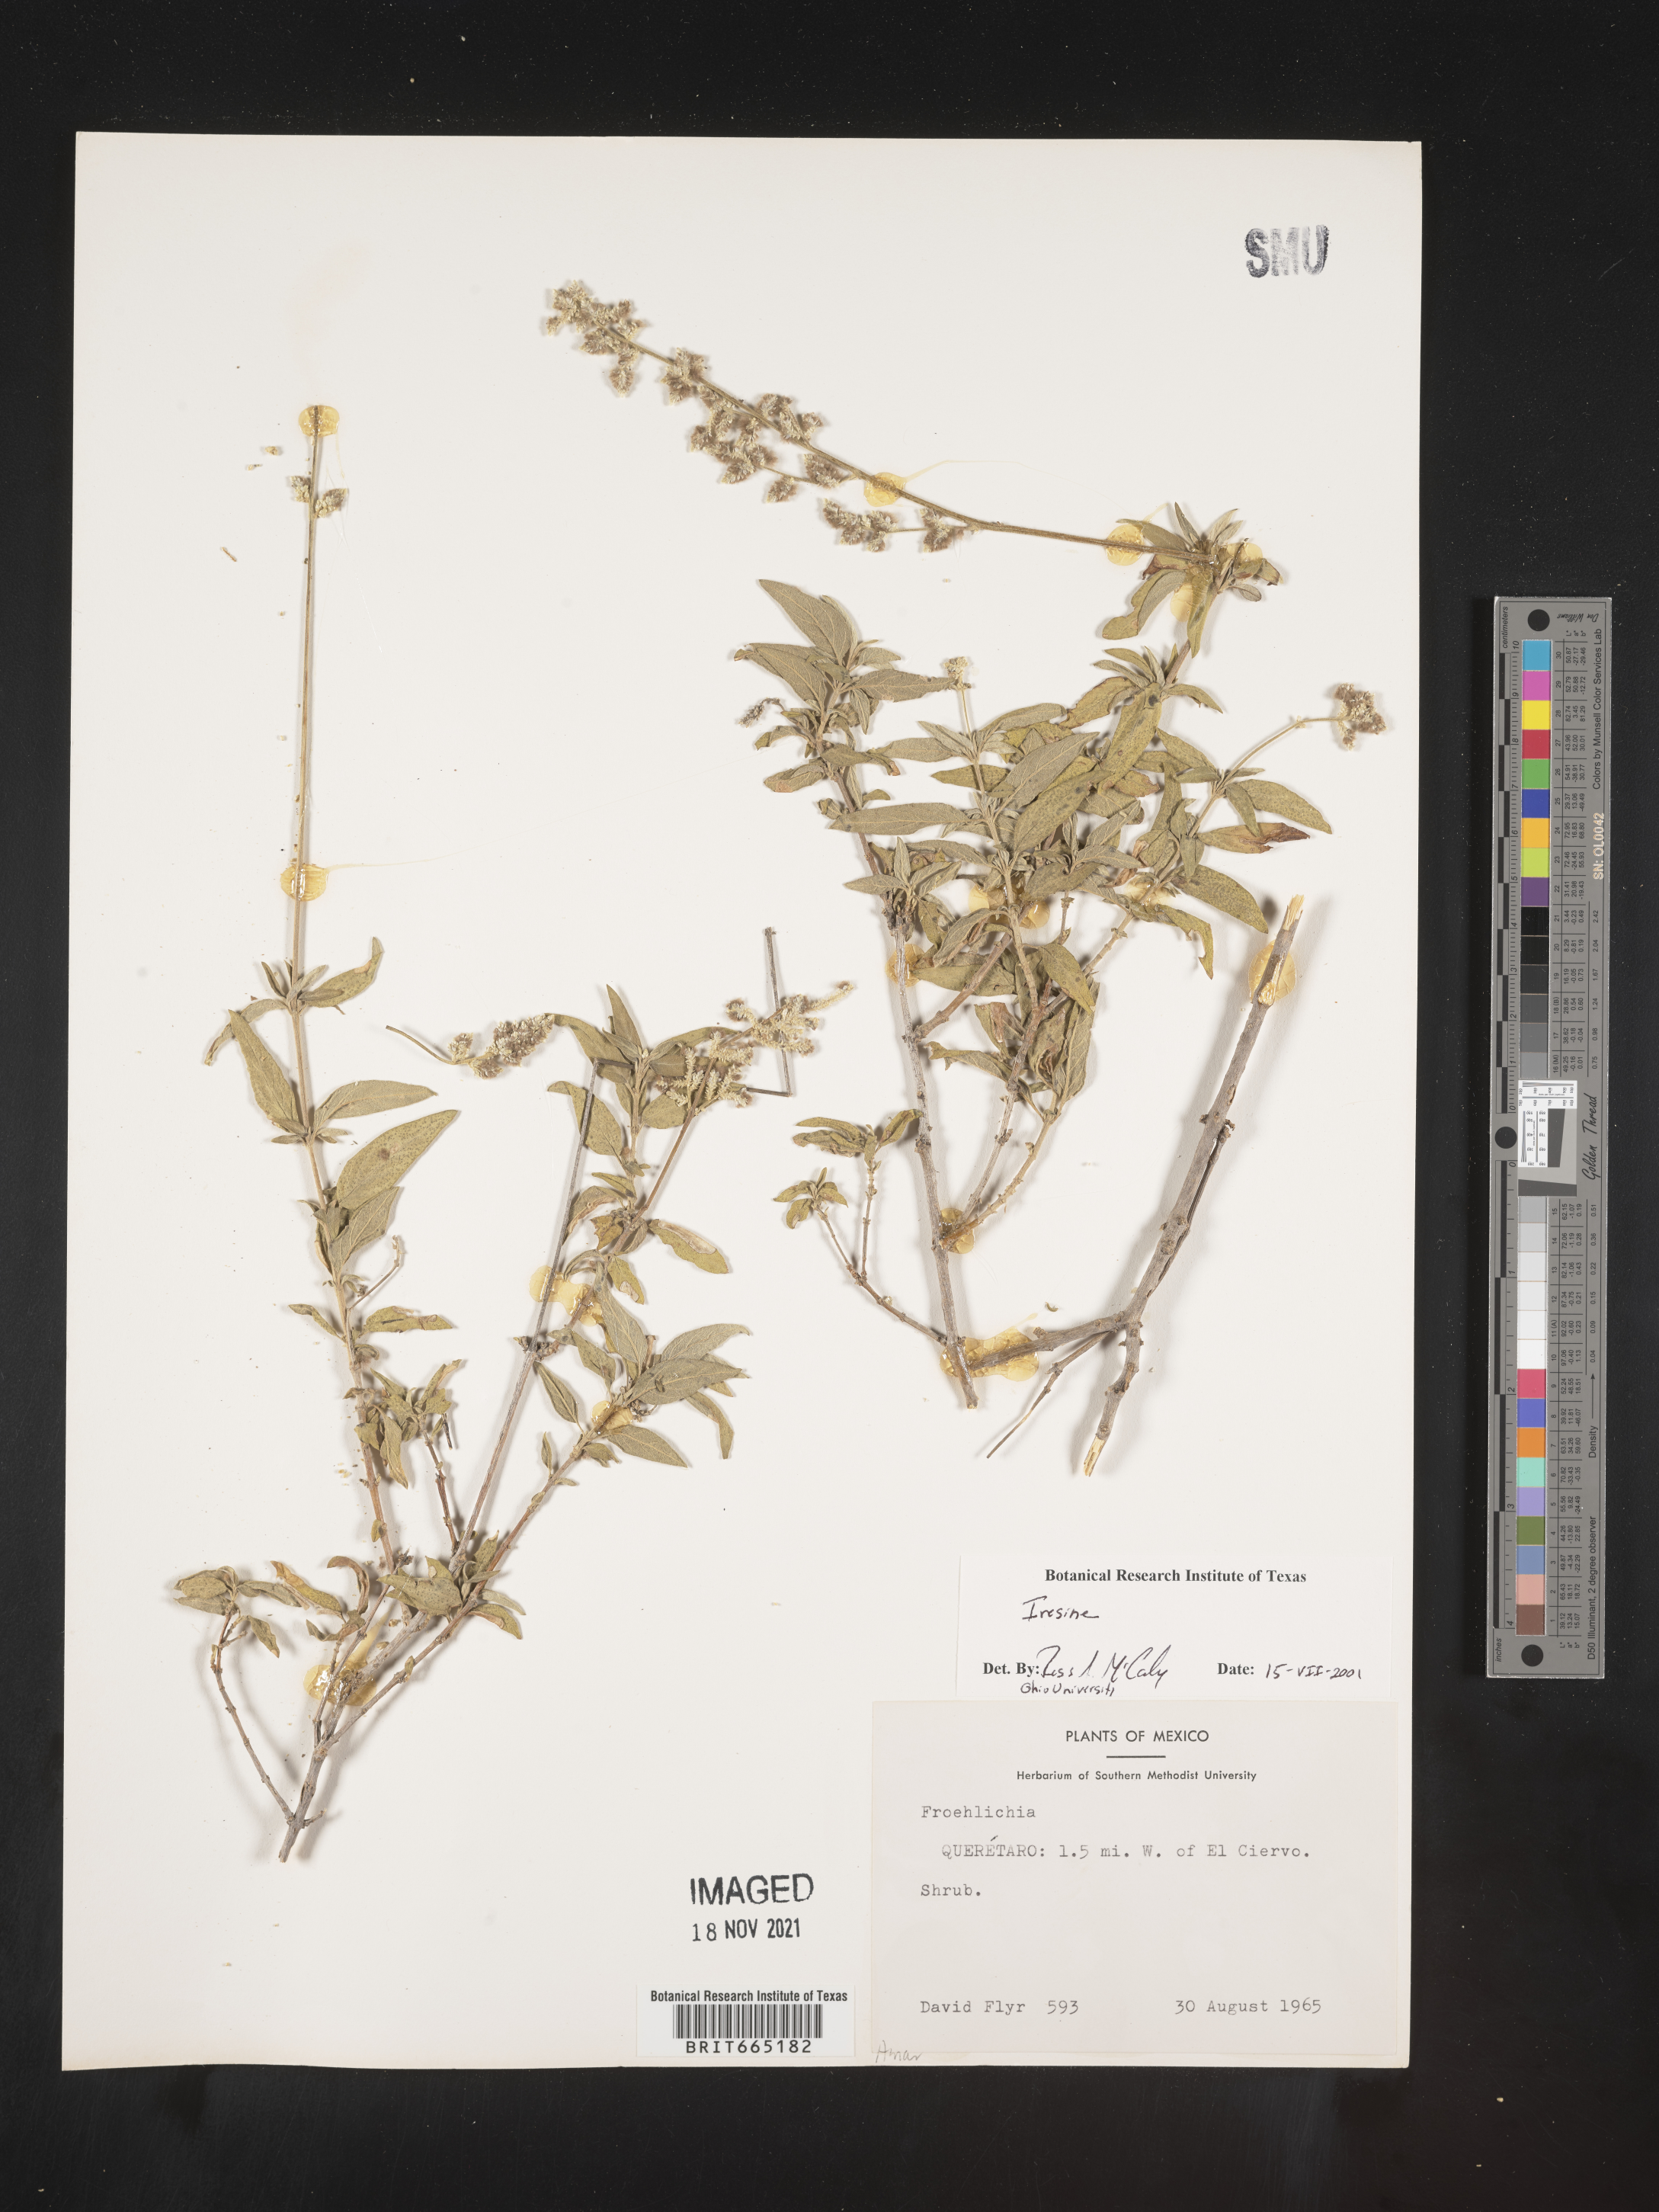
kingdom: Plantae
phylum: Tracheophyta
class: Magnoliopsida
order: Caryophyllales
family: Amaranthaceae
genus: Iresine
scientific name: Iresine
